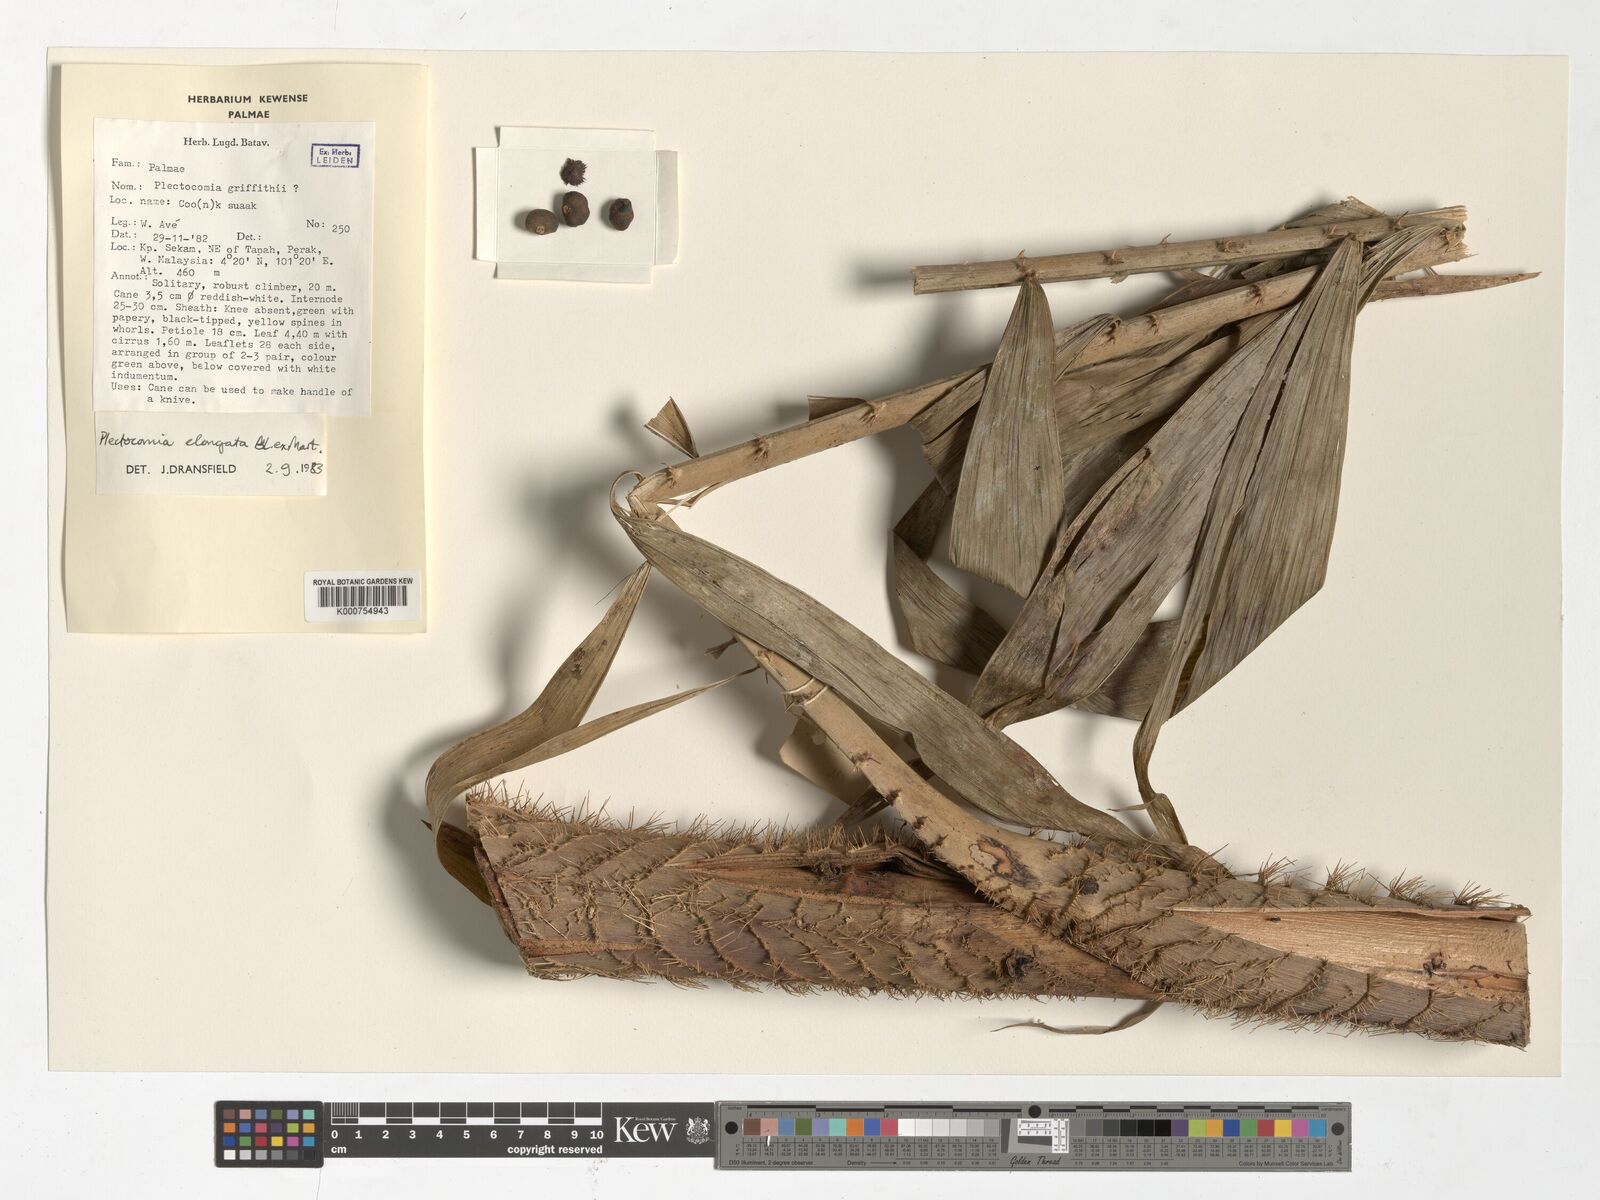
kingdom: Plantae
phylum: Tracheophyta
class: Liliopsida
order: Arecales
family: Arecaceae
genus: Plectocomia
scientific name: Plectocomia elongata
